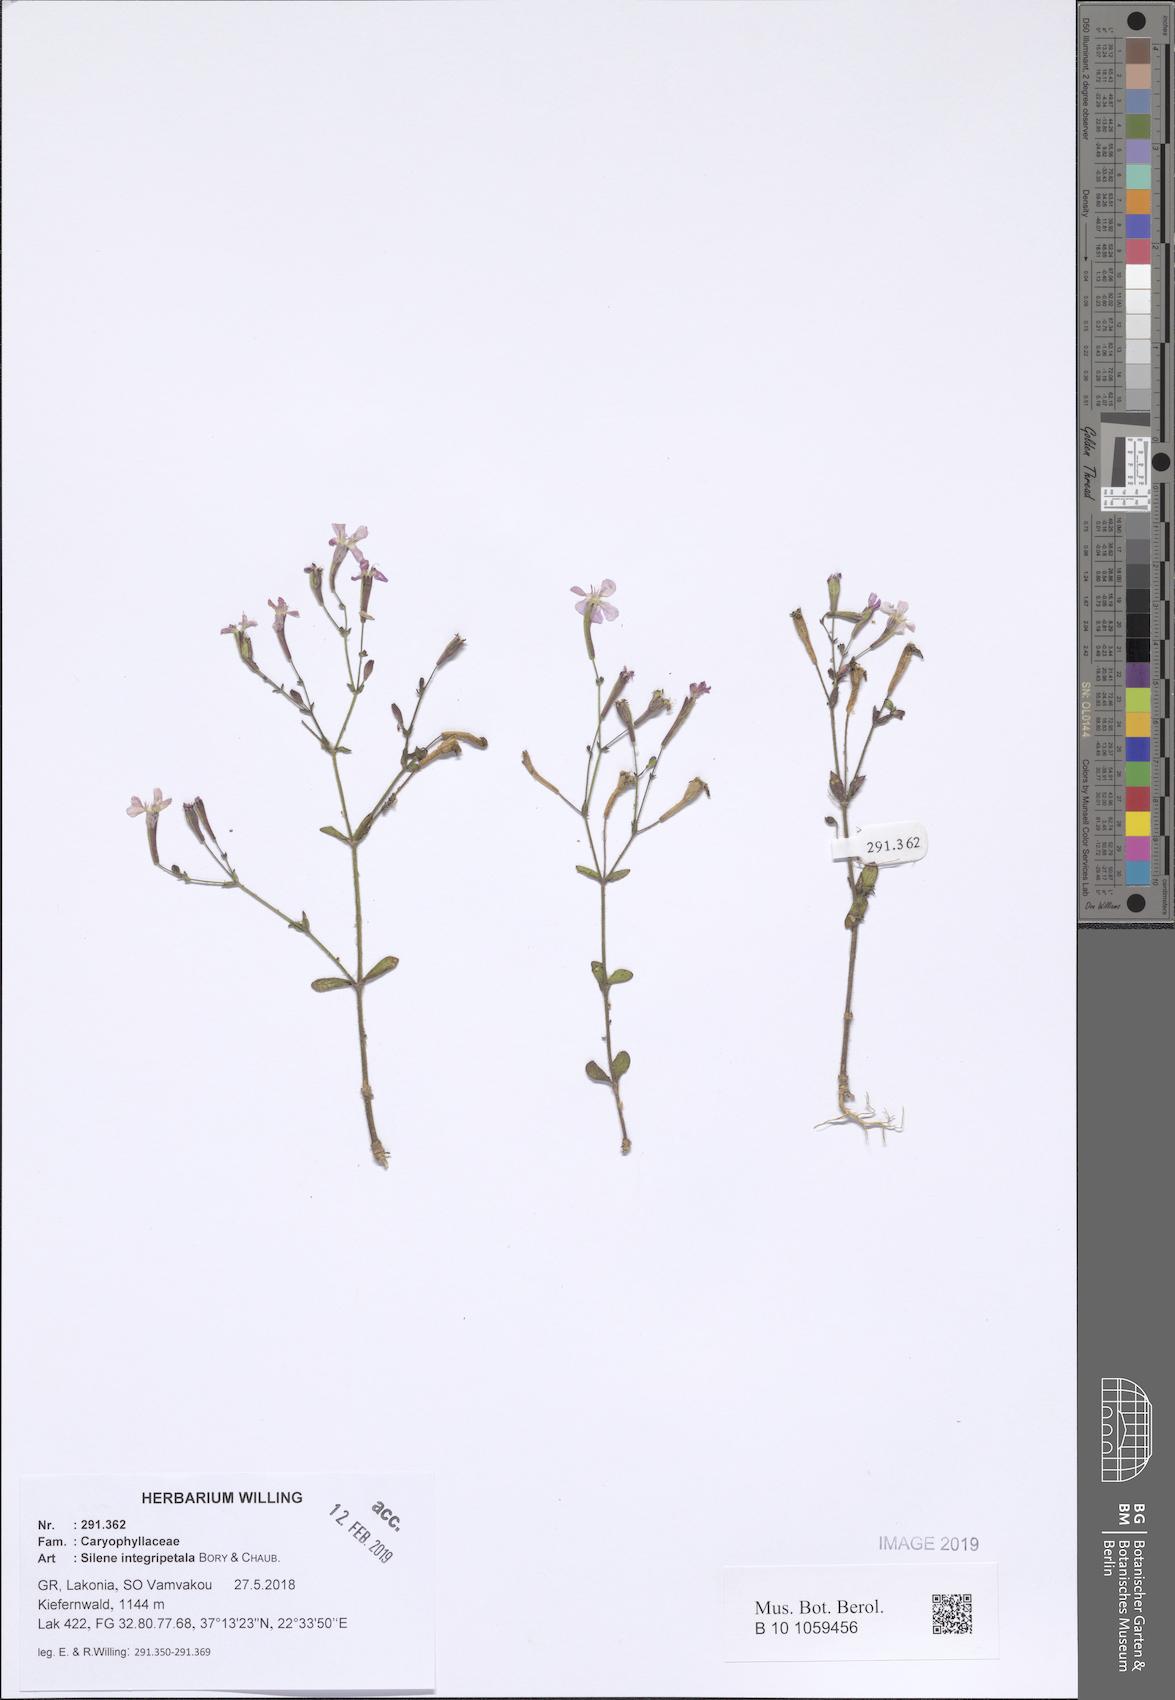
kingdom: Plantae
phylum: Tracheophyta
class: Magnoliopsida
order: Caryophyllales
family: Caryophyllaceae
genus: Silene
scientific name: Silene integripetala
